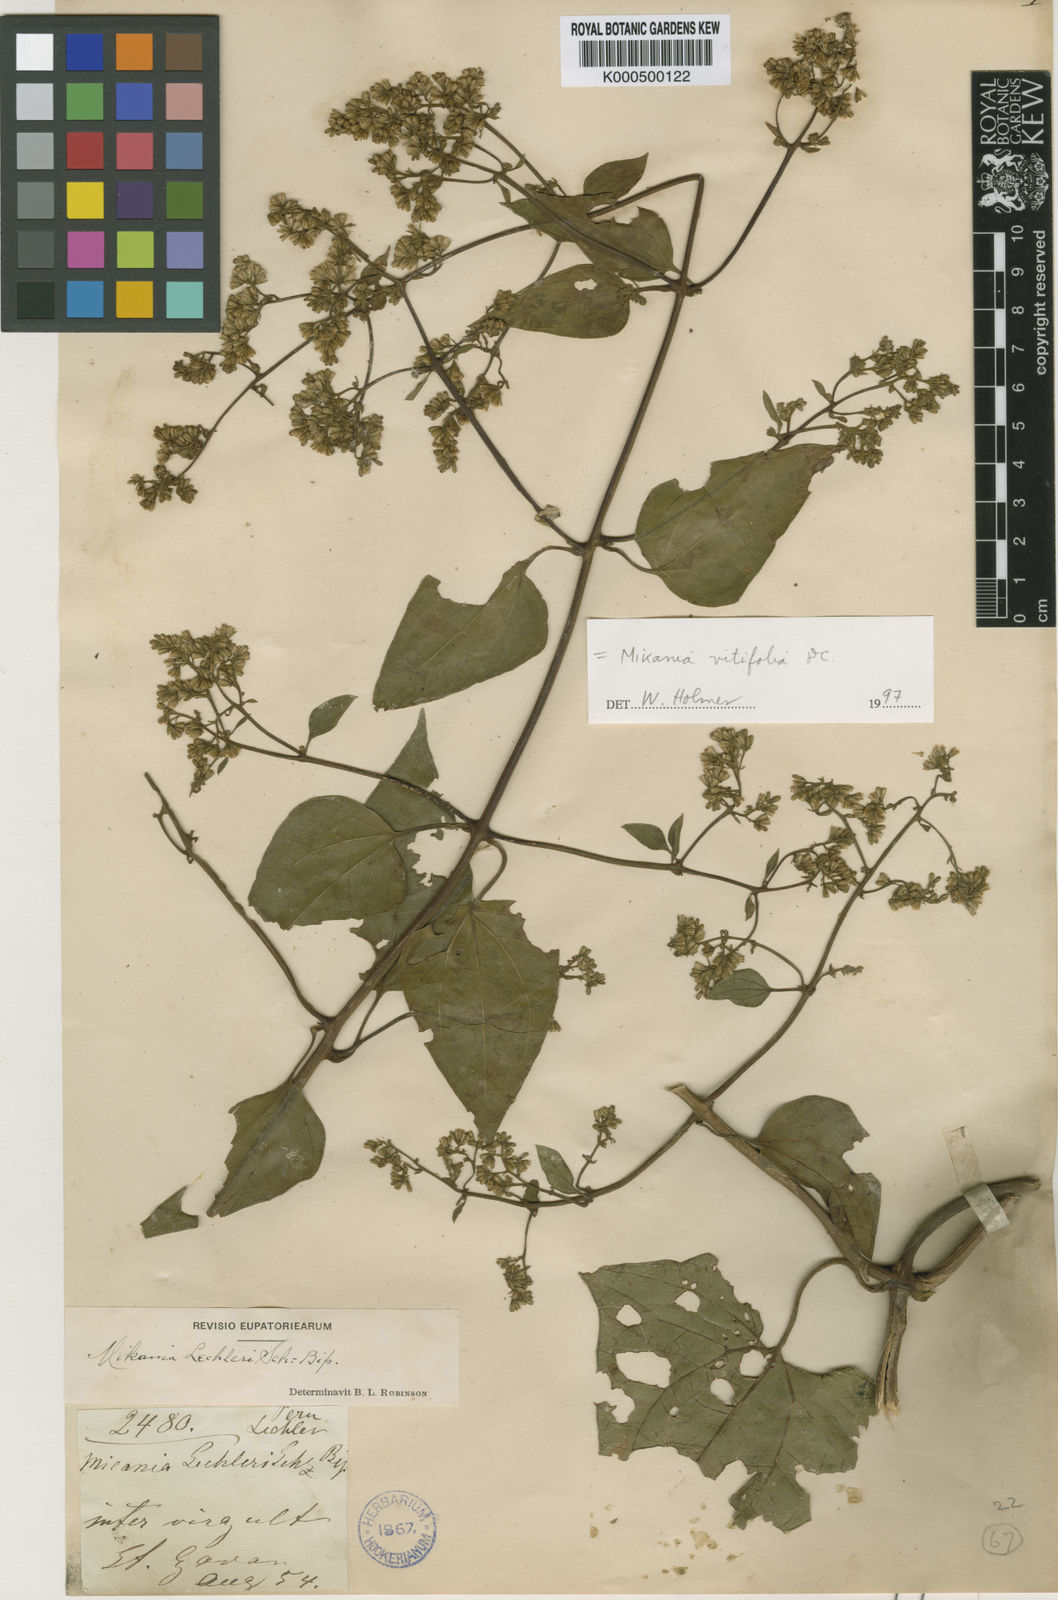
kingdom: Plantae
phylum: Tracheophyta
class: Magnoliopsida
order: Asterales
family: Asteraceae
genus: Mikania
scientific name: Mikania vitifolia
